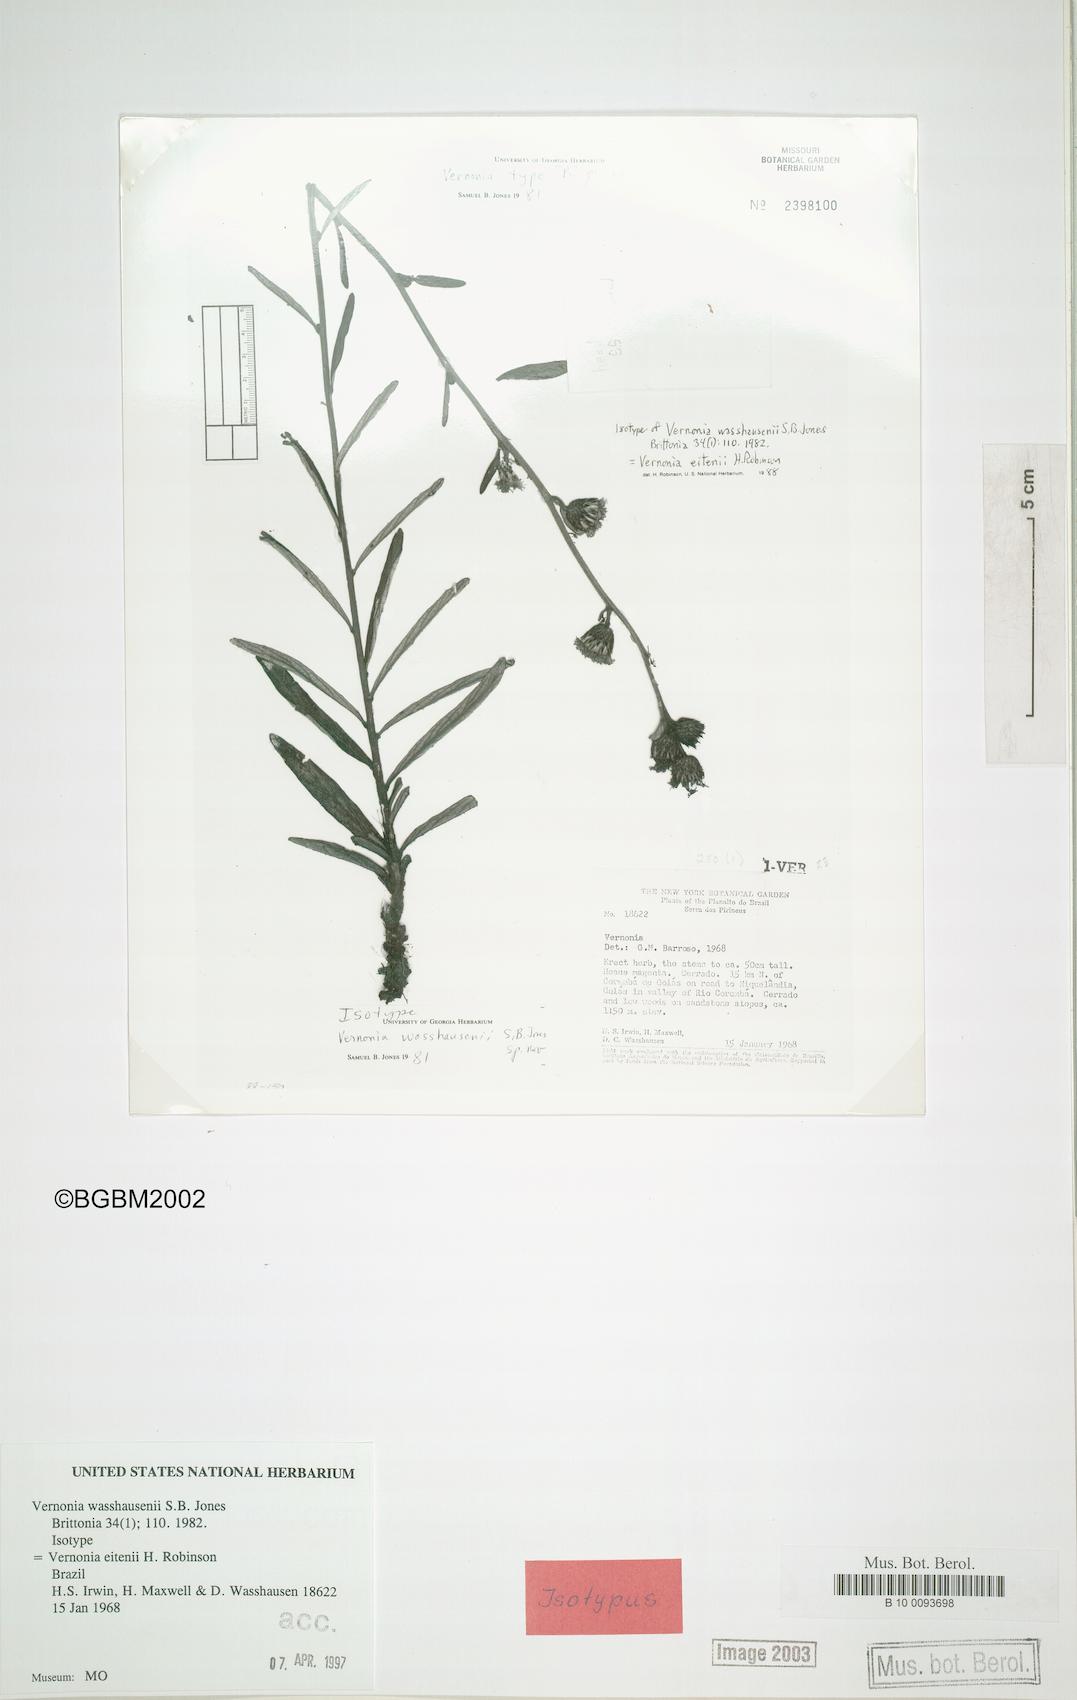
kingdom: Plantae
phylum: Tracheophyta
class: Magnoliopsida
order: Asterales
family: Asteraceae
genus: Lessingianthus
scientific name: Lessingianthus eitenii
